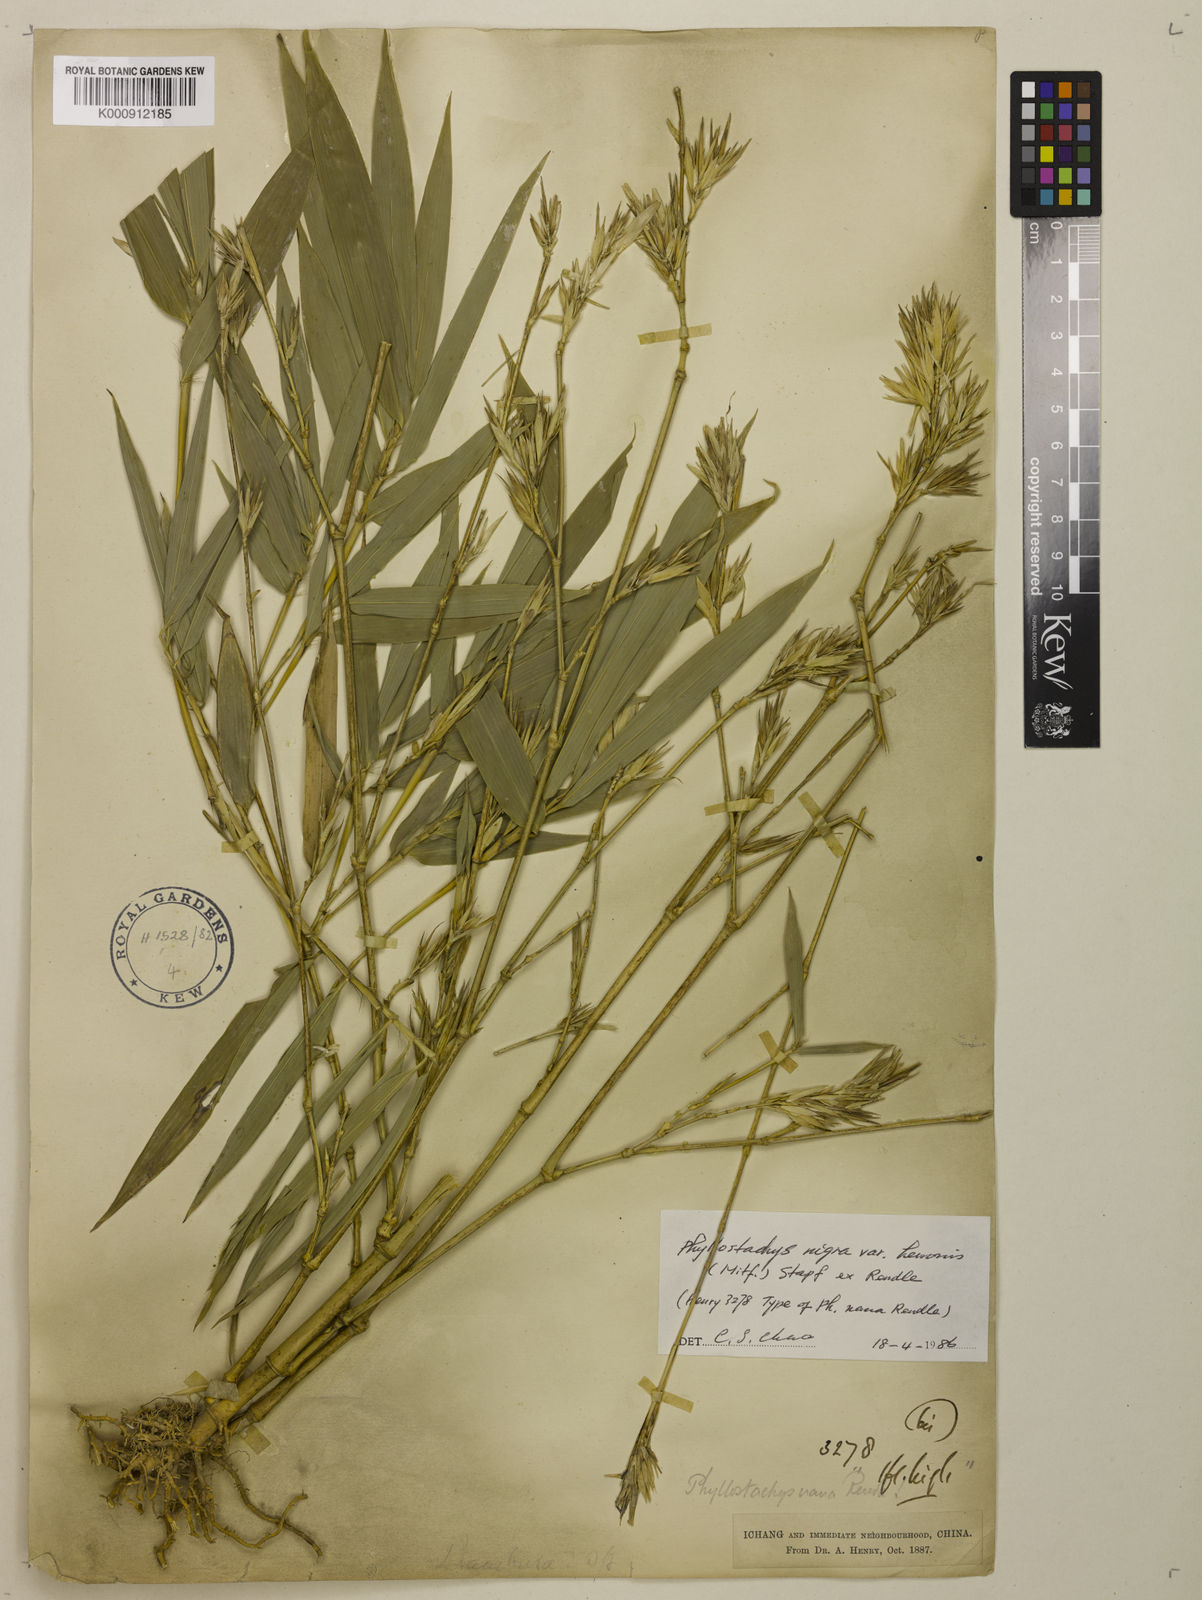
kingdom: Plantae
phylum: Tracheophyta
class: Liliopsida
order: Poales
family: Poaceae
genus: Phyllostachys
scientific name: Phyllostachys nigra
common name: Black bamboo
